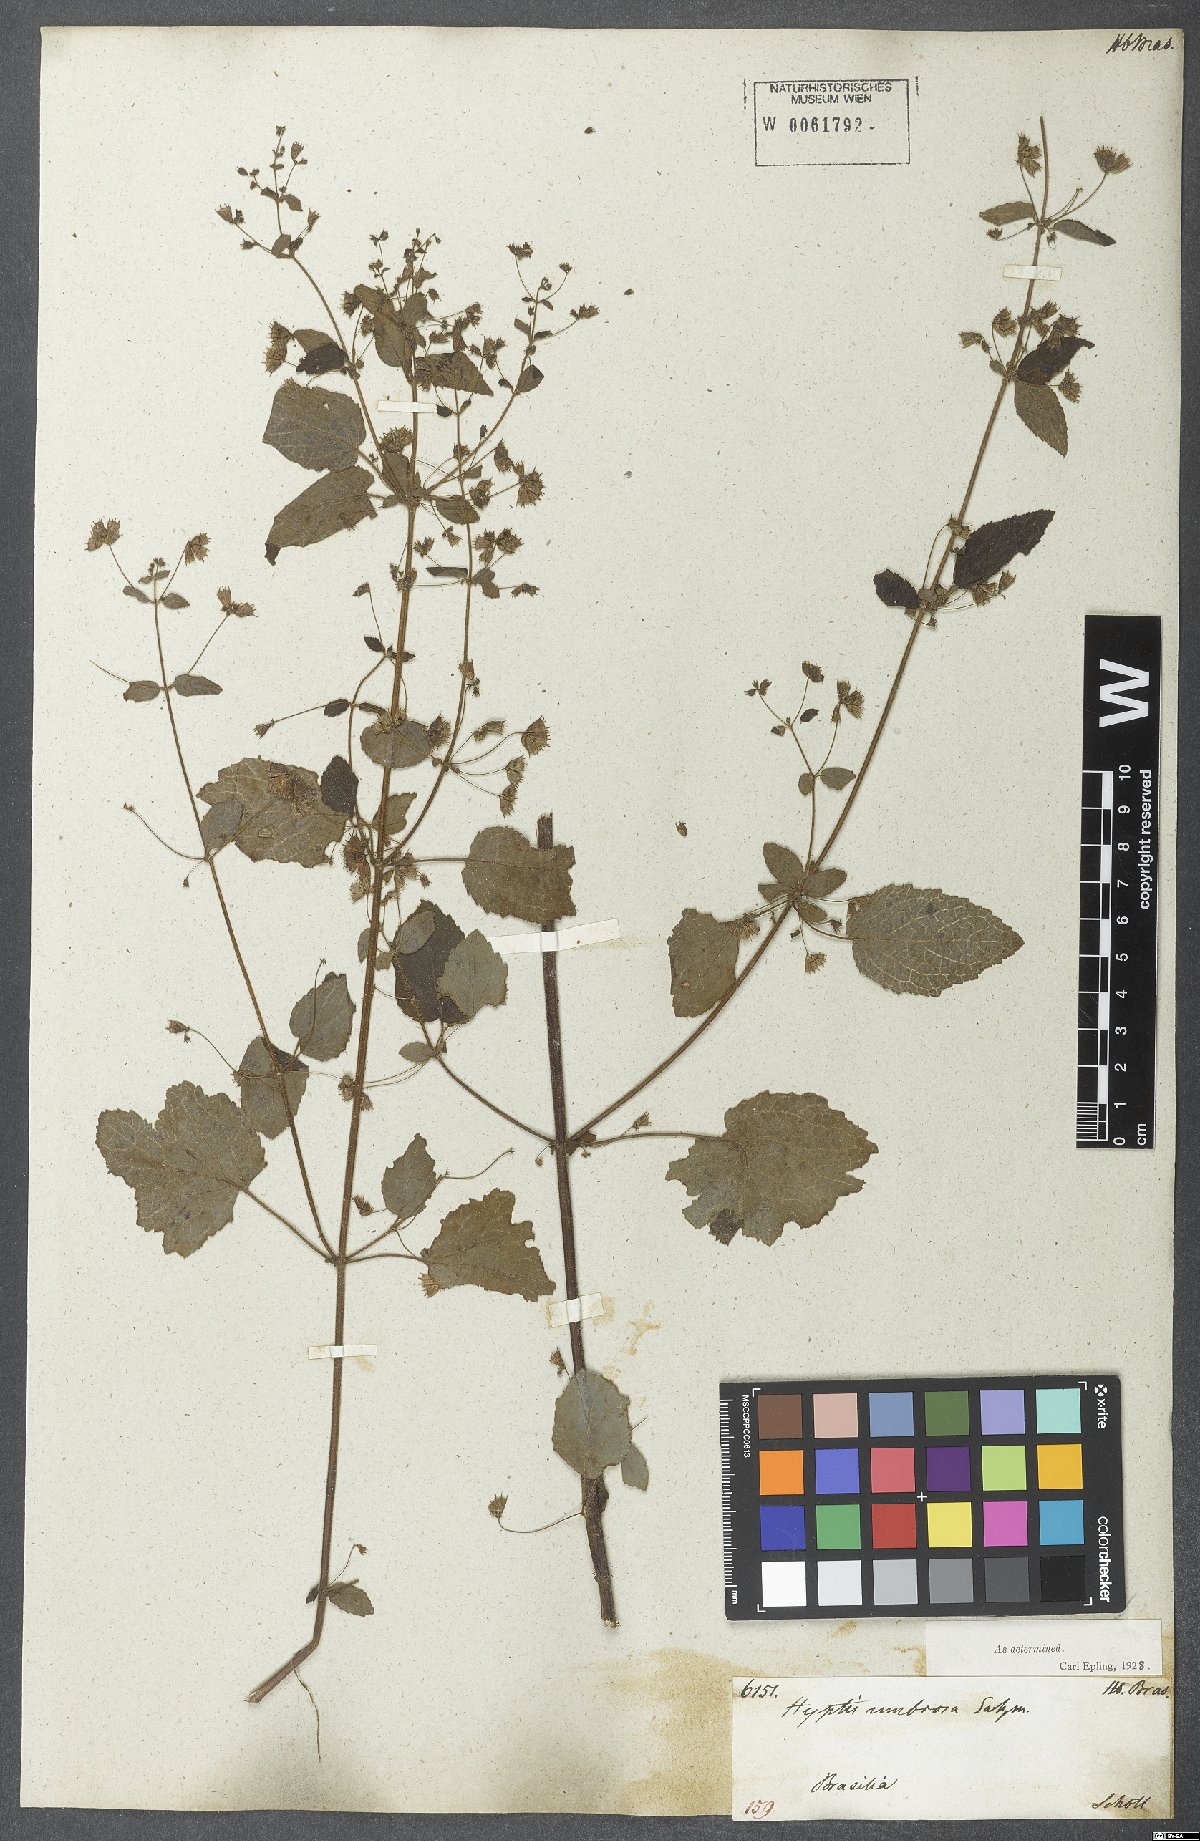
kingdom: Plantae
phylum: Tracheophyta
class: Magnoliopsida
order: Lamiales
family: Lamiaceae
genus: Mesosphaerum
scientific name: Mesosphaerum sidifolium
